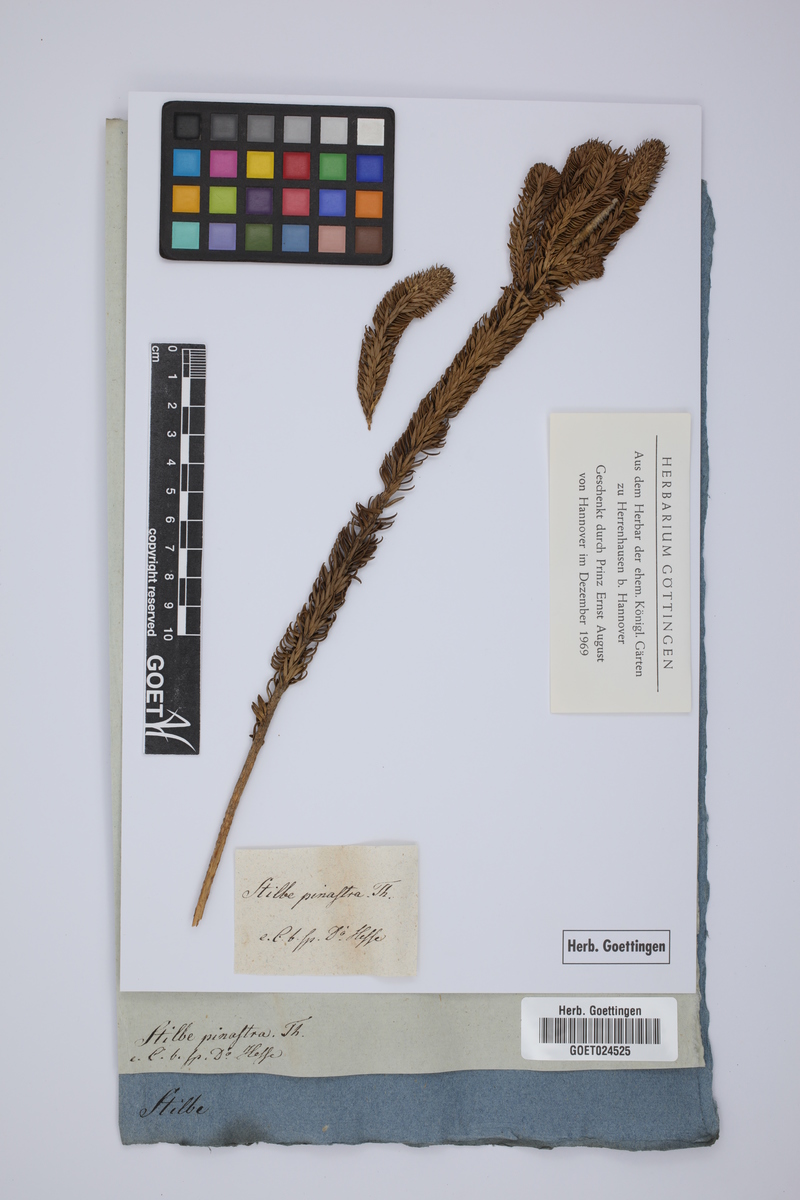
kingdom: Plantae
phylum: Tracheophyta
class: Magnoliopsida
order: Lamiales
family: Stilbaceae
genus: Stilbe
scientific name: Stilbe vestita
